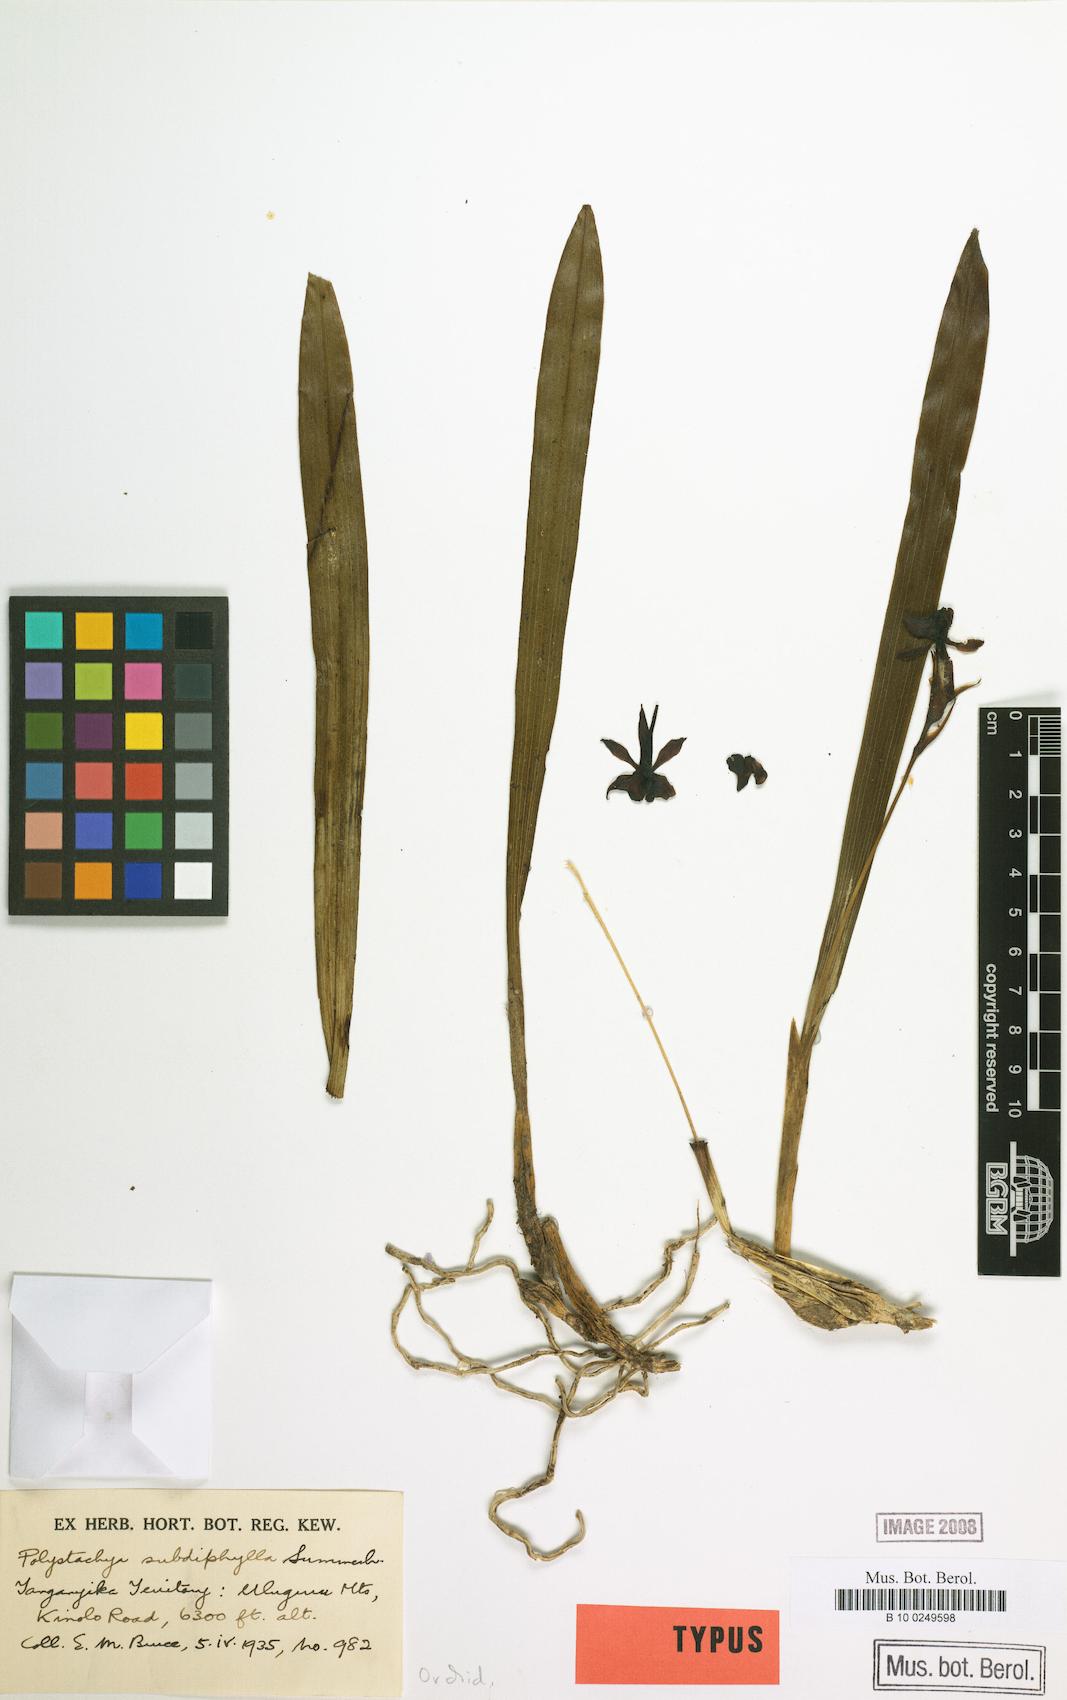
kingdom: Plantae
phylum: Tracheophyta
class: Liliopsida
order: Asparagales
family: Orchidaceae
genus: Polystachya
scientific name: Polystachya subdiphylla
